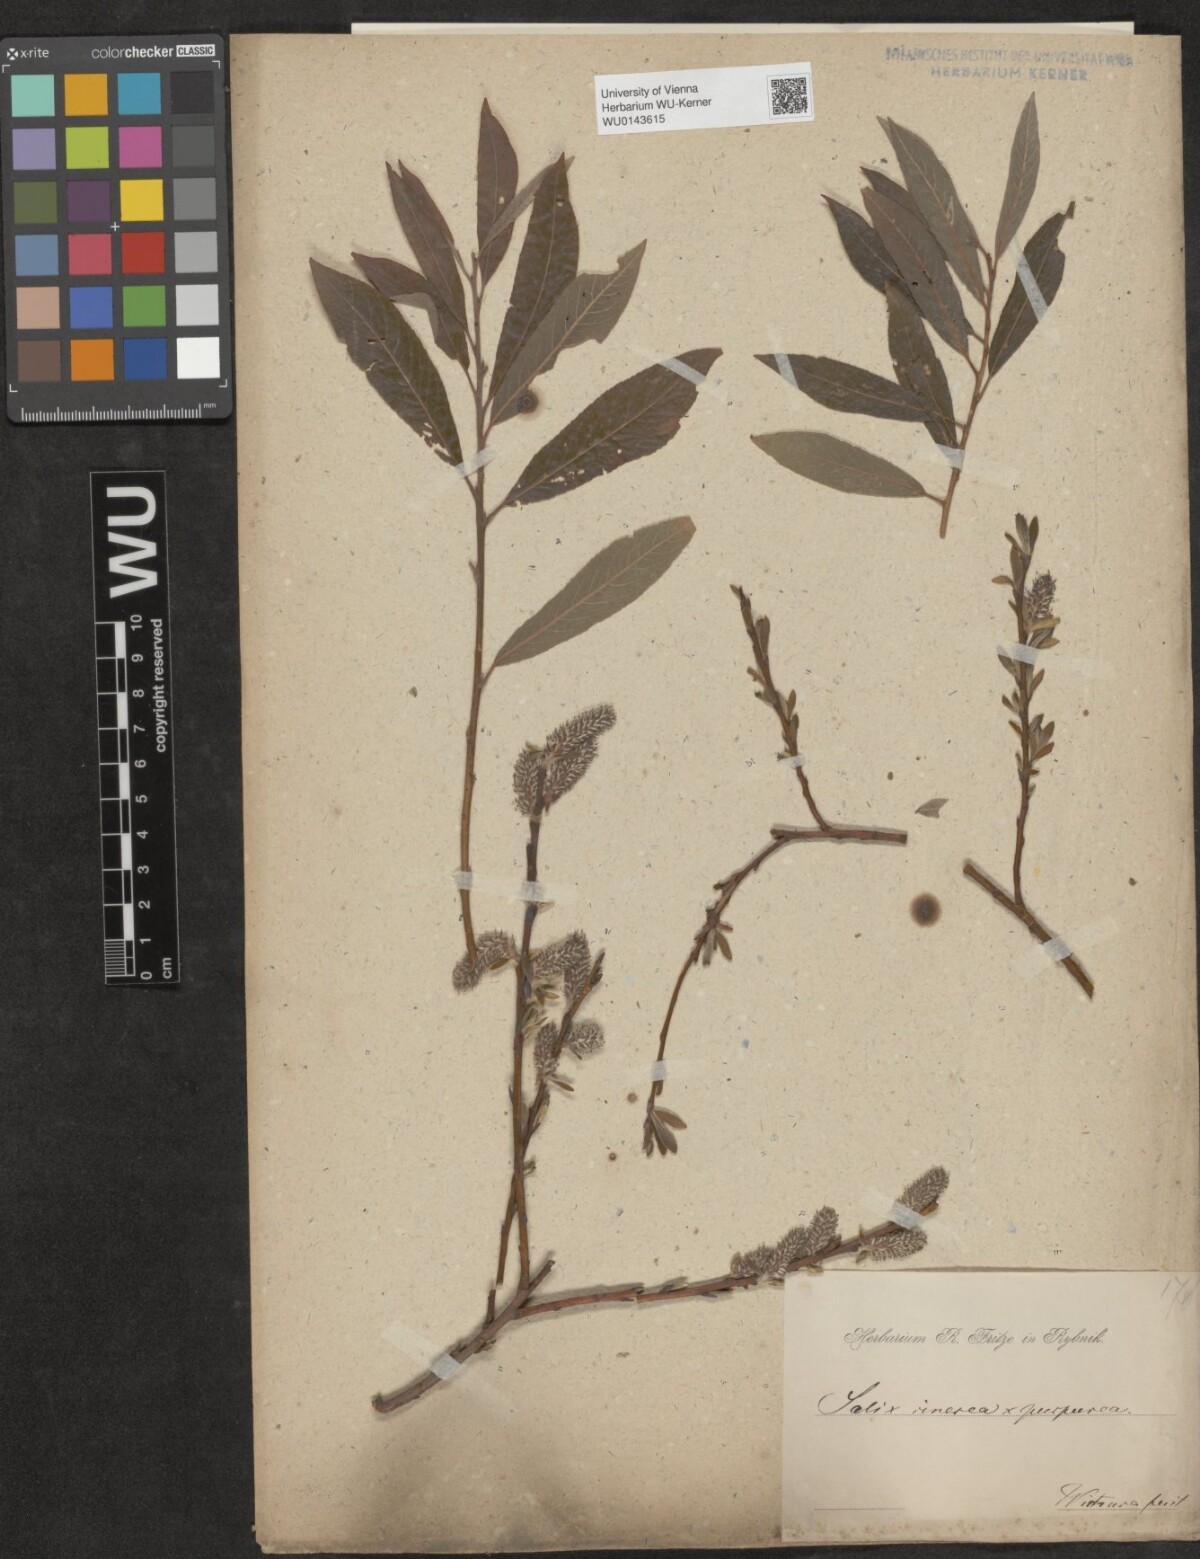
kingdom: Plantae
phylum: Tracheophyta
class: Magnoliopsida
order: Malpighiales
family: Salicaceae
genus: Salix
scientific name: Salix
